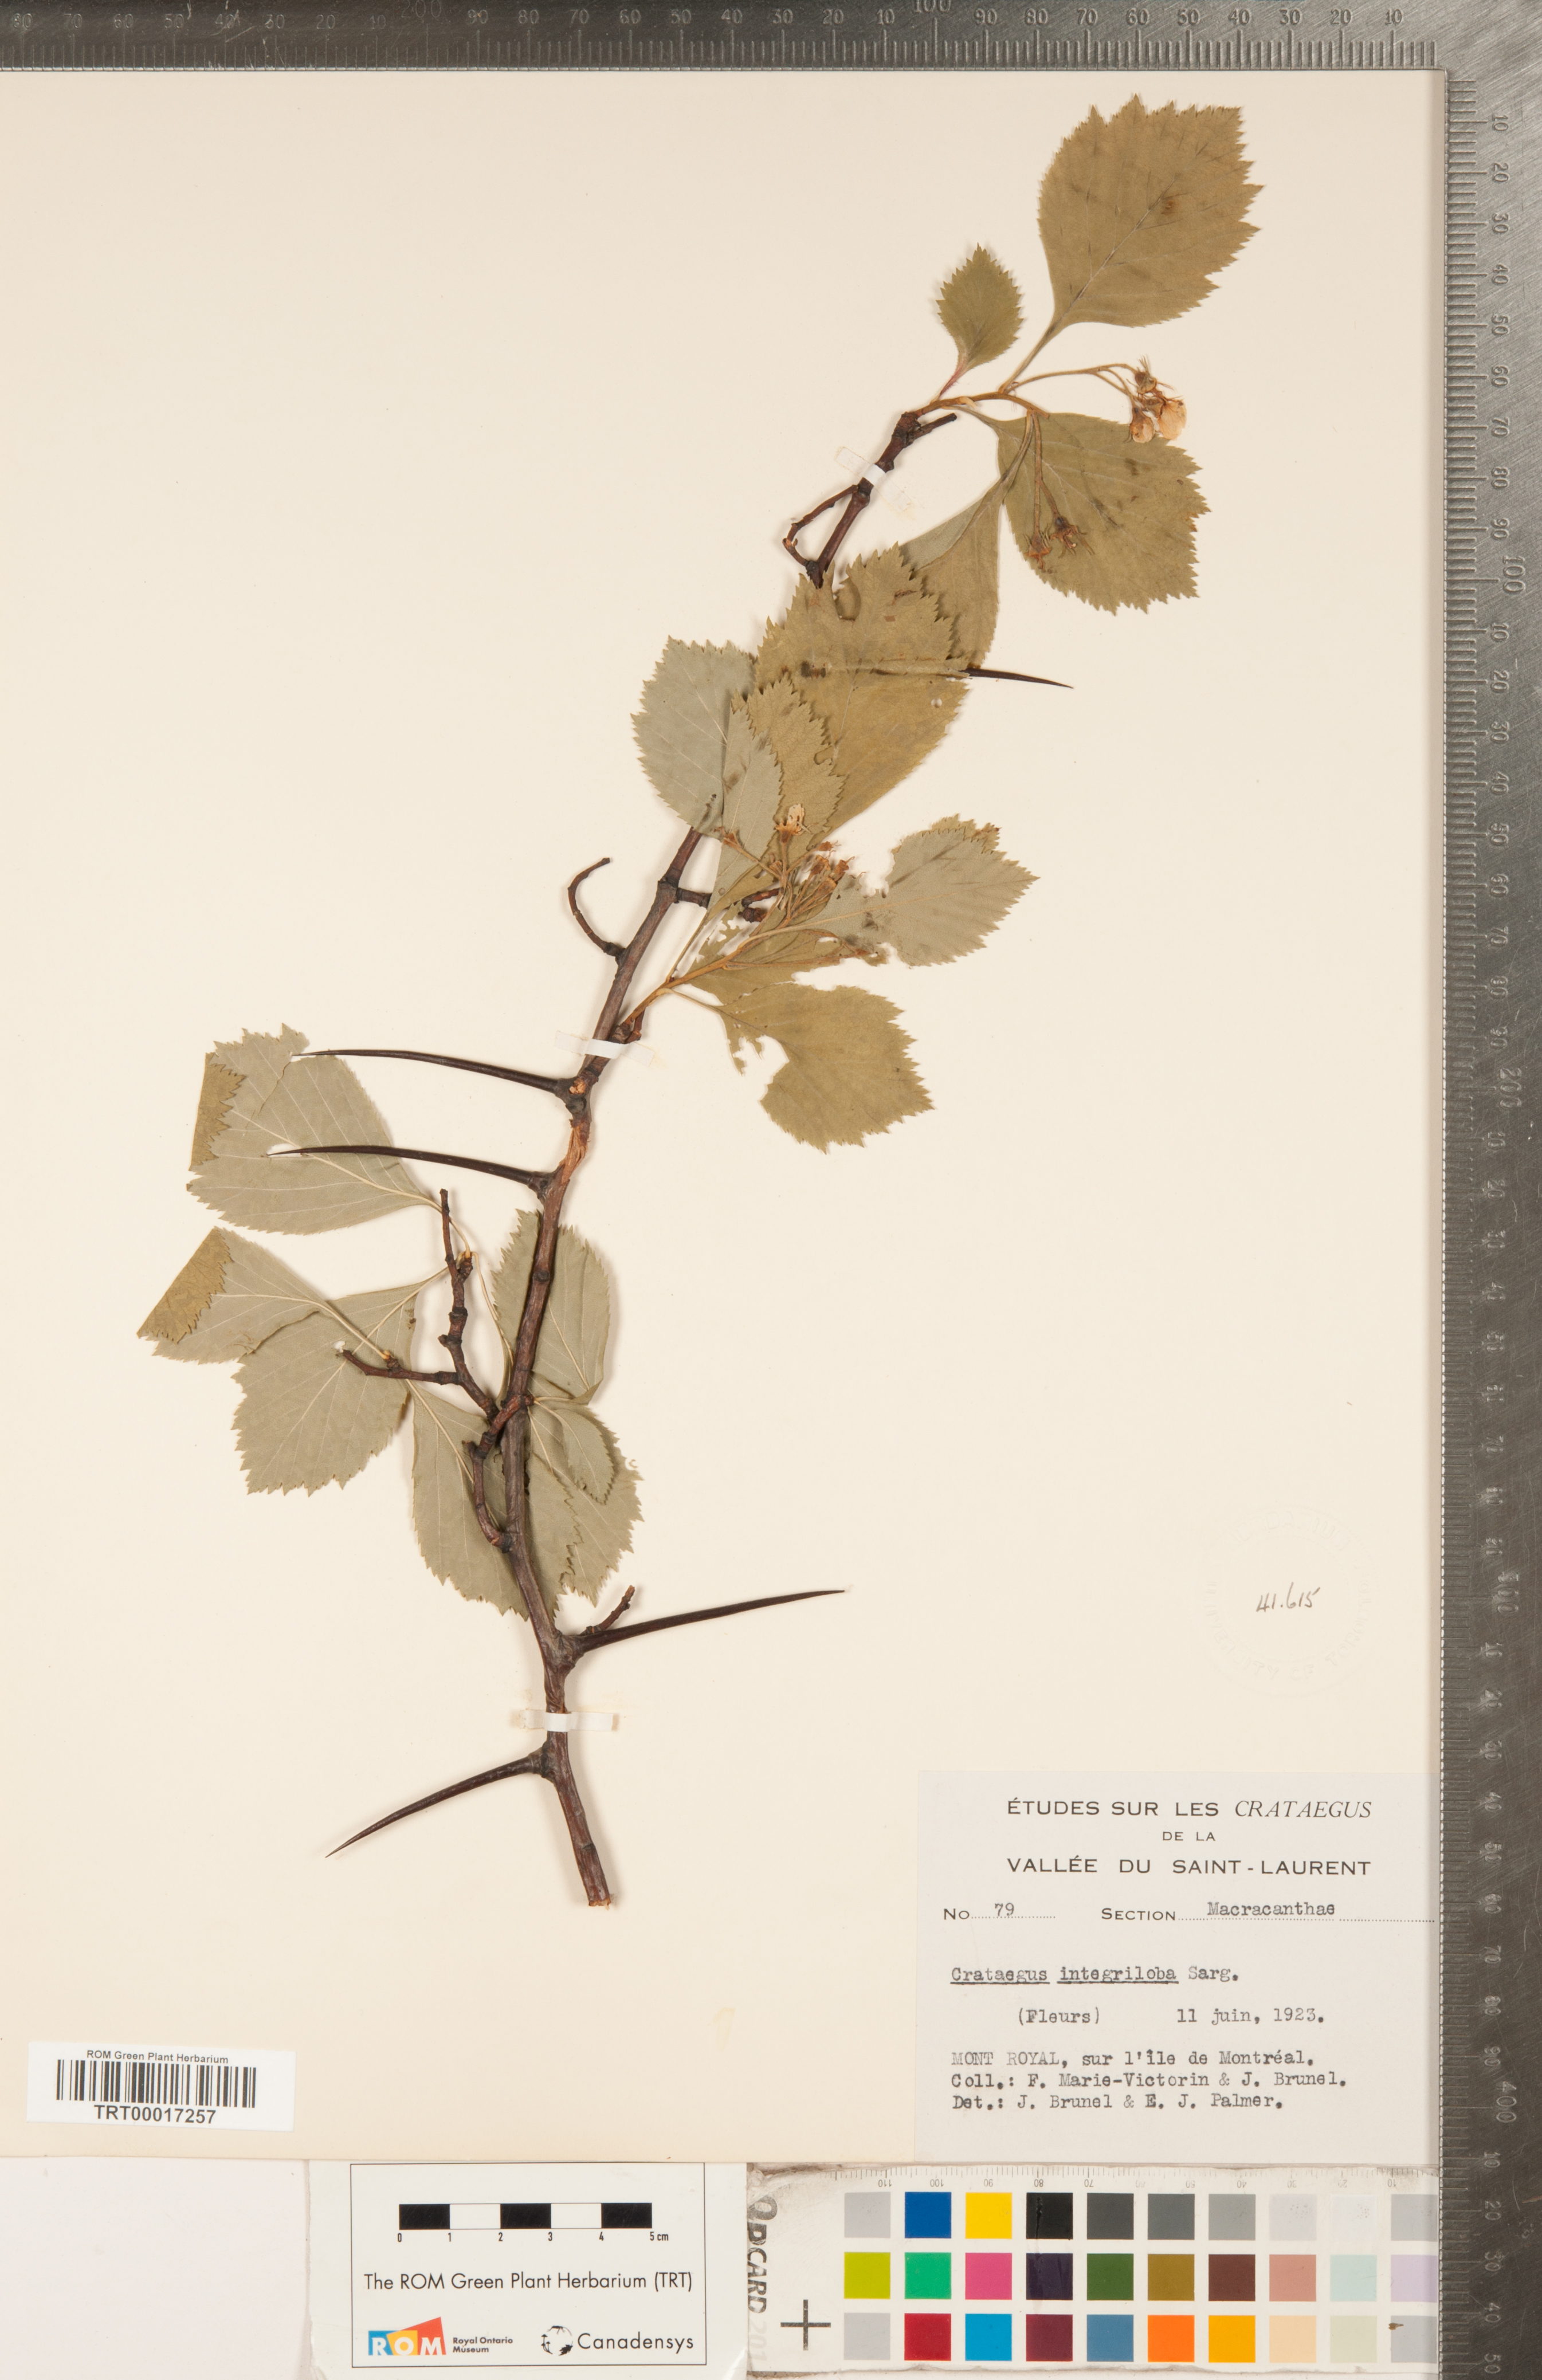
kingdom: Plantae
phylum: Tracheophyta
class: Magnoliopsida
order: Rosales
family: Rosaceae
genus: Crataegus
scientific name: Crataegus succulenta
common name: Fleshy hawthorn
